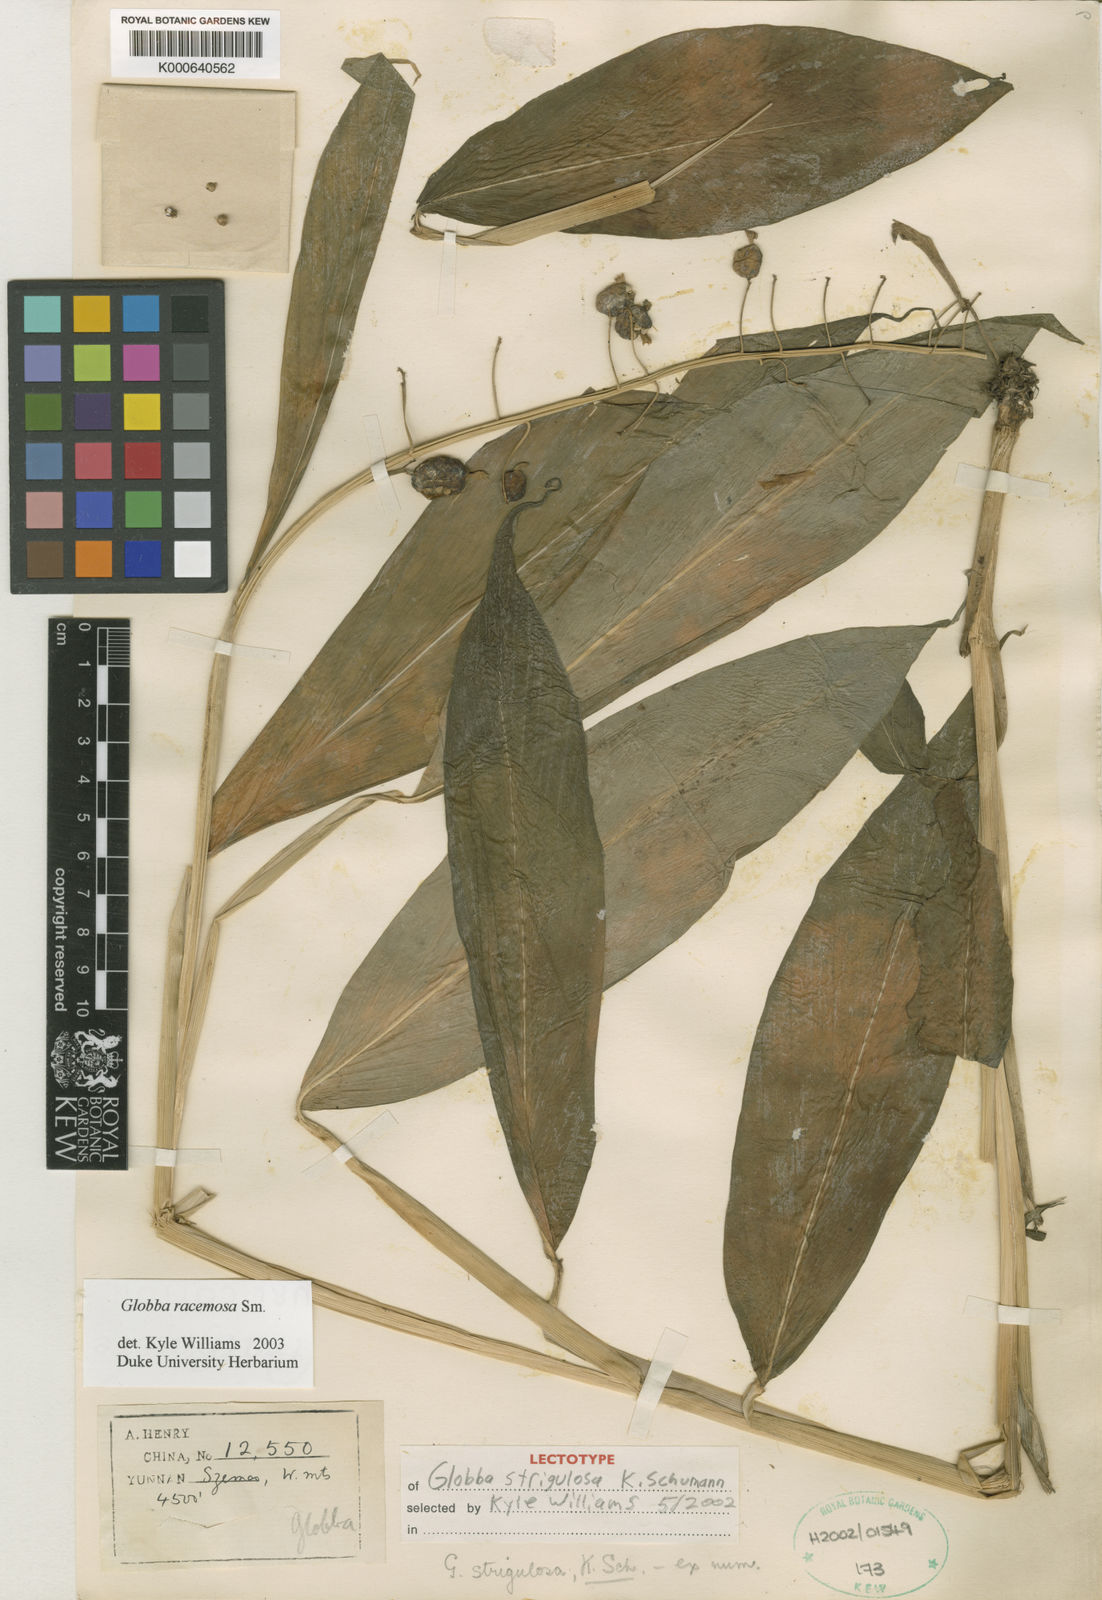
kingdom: Plantae
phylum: Tracheophyta
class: Liliopsida
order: Zingiberales
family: Zingiberaceae
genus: Globba
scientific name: Globba racemosa
